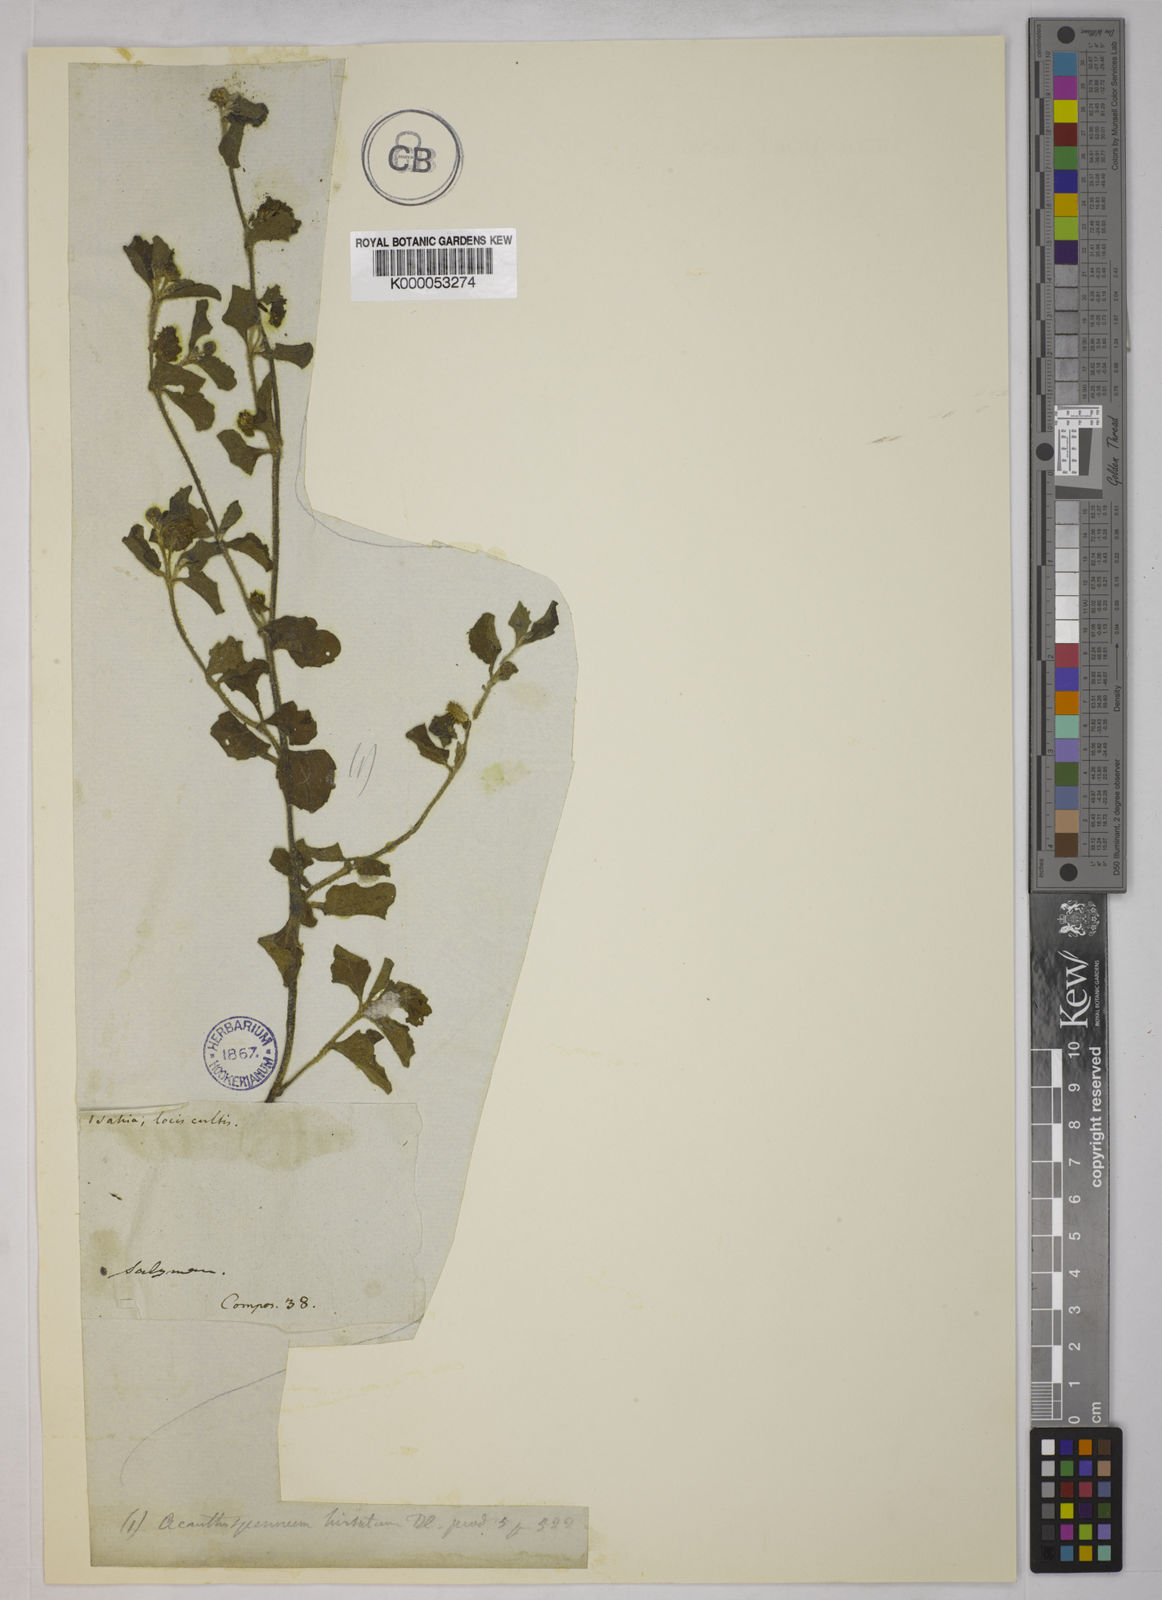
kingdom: Plantae
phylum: Tracheophyta
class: Magnoliopsida
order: Asterales
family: Asteraceae
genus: Acanthospermum
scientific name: Acanthospermum australe
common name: Paraguayan starbur
